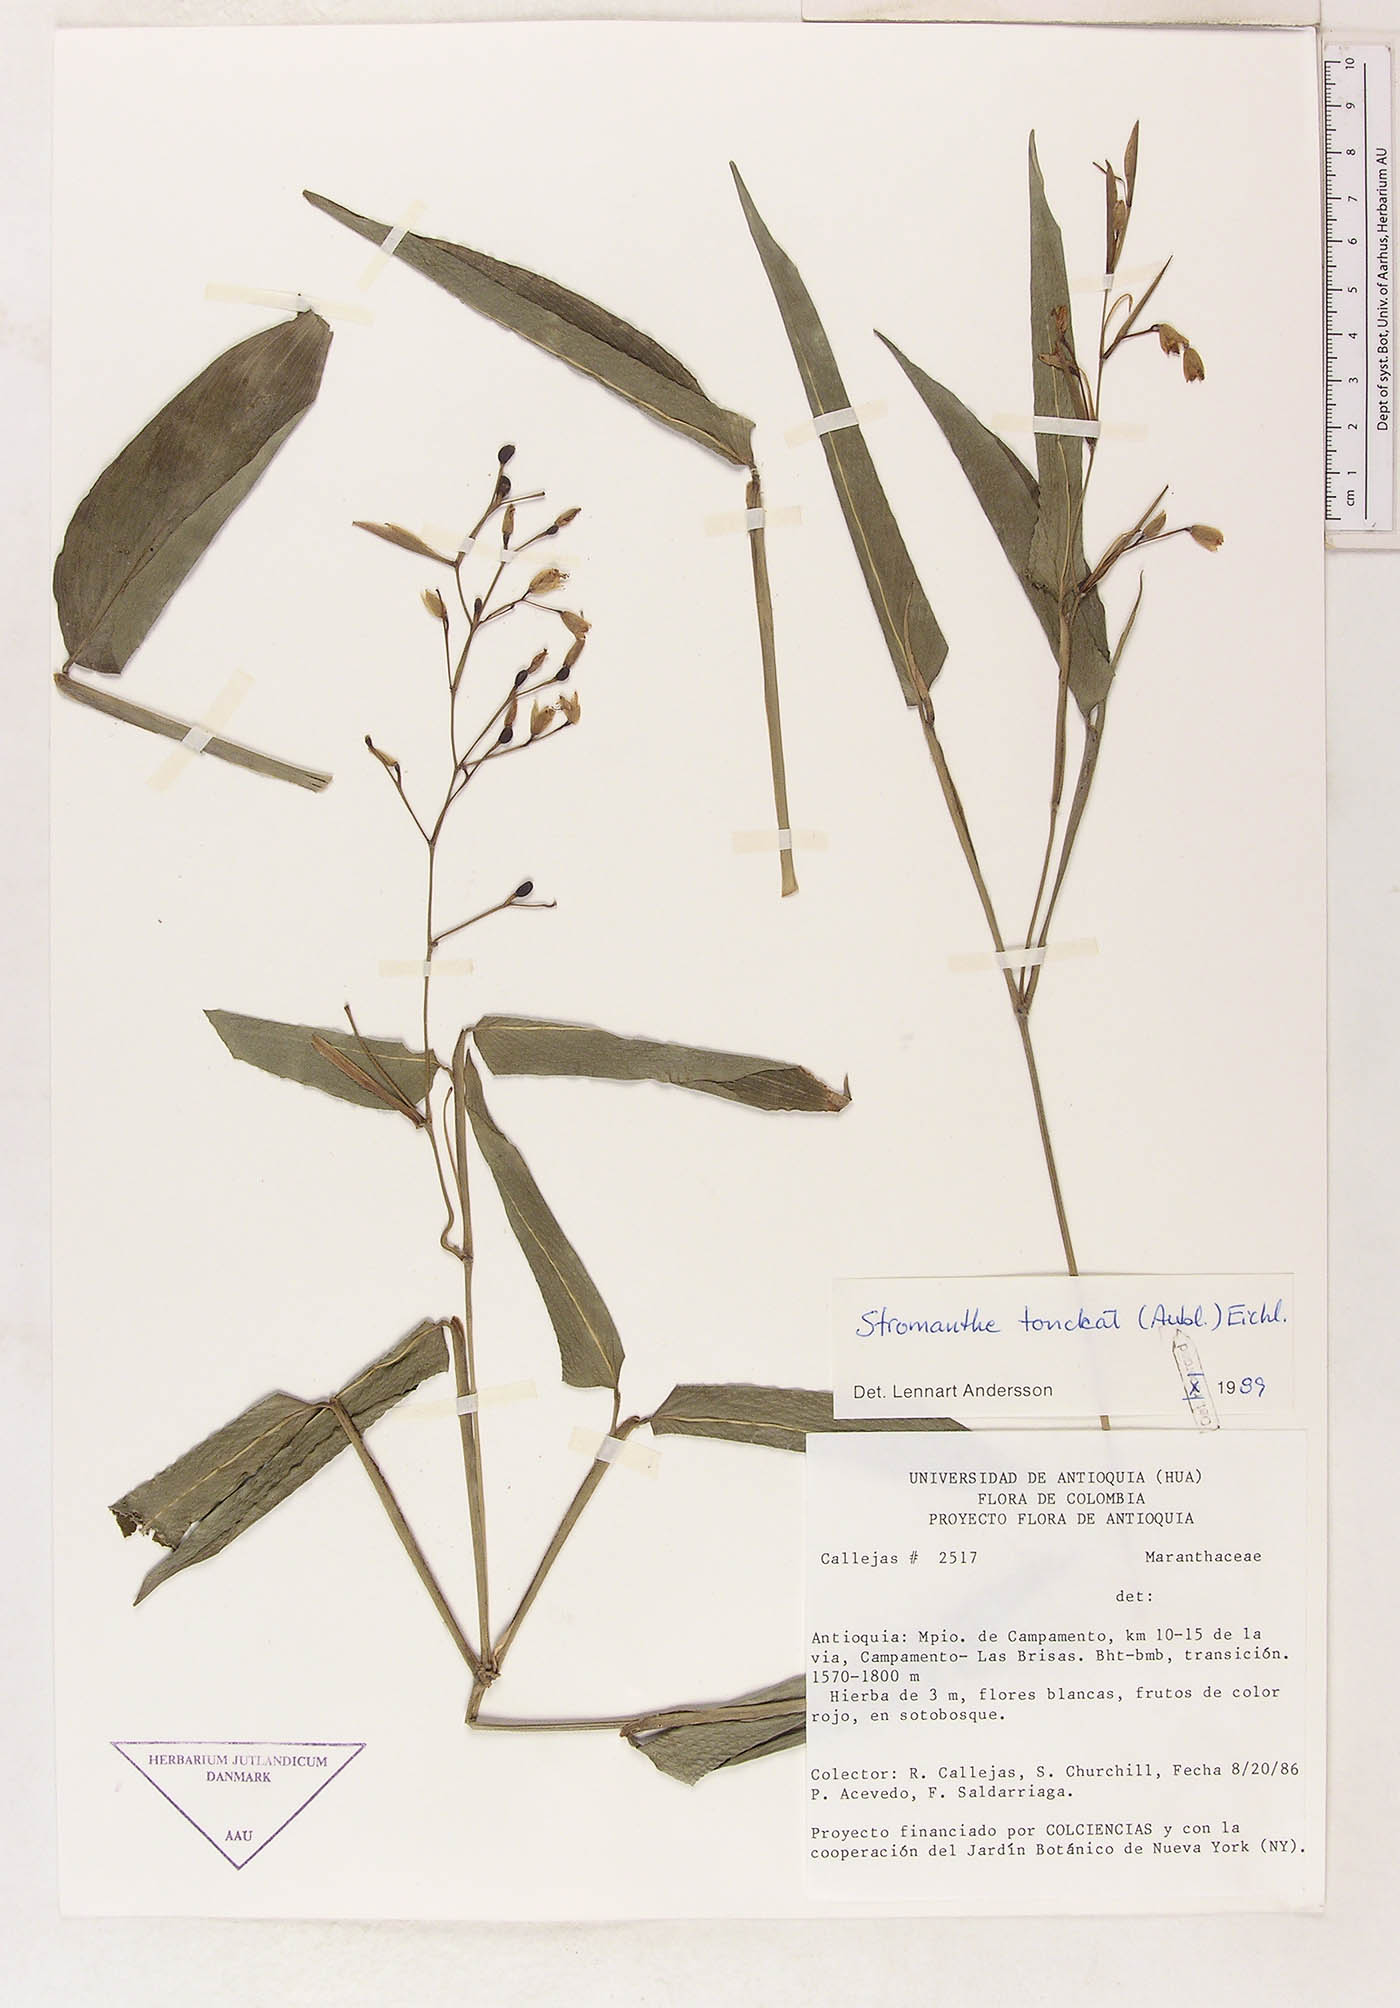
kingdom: Plantae
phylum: Tracheophyta
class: Liliopsida
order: Zingiberales
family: Marantaceae
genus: Stromanthe
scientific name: Stromanthe tonckat
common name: Stromanthe
